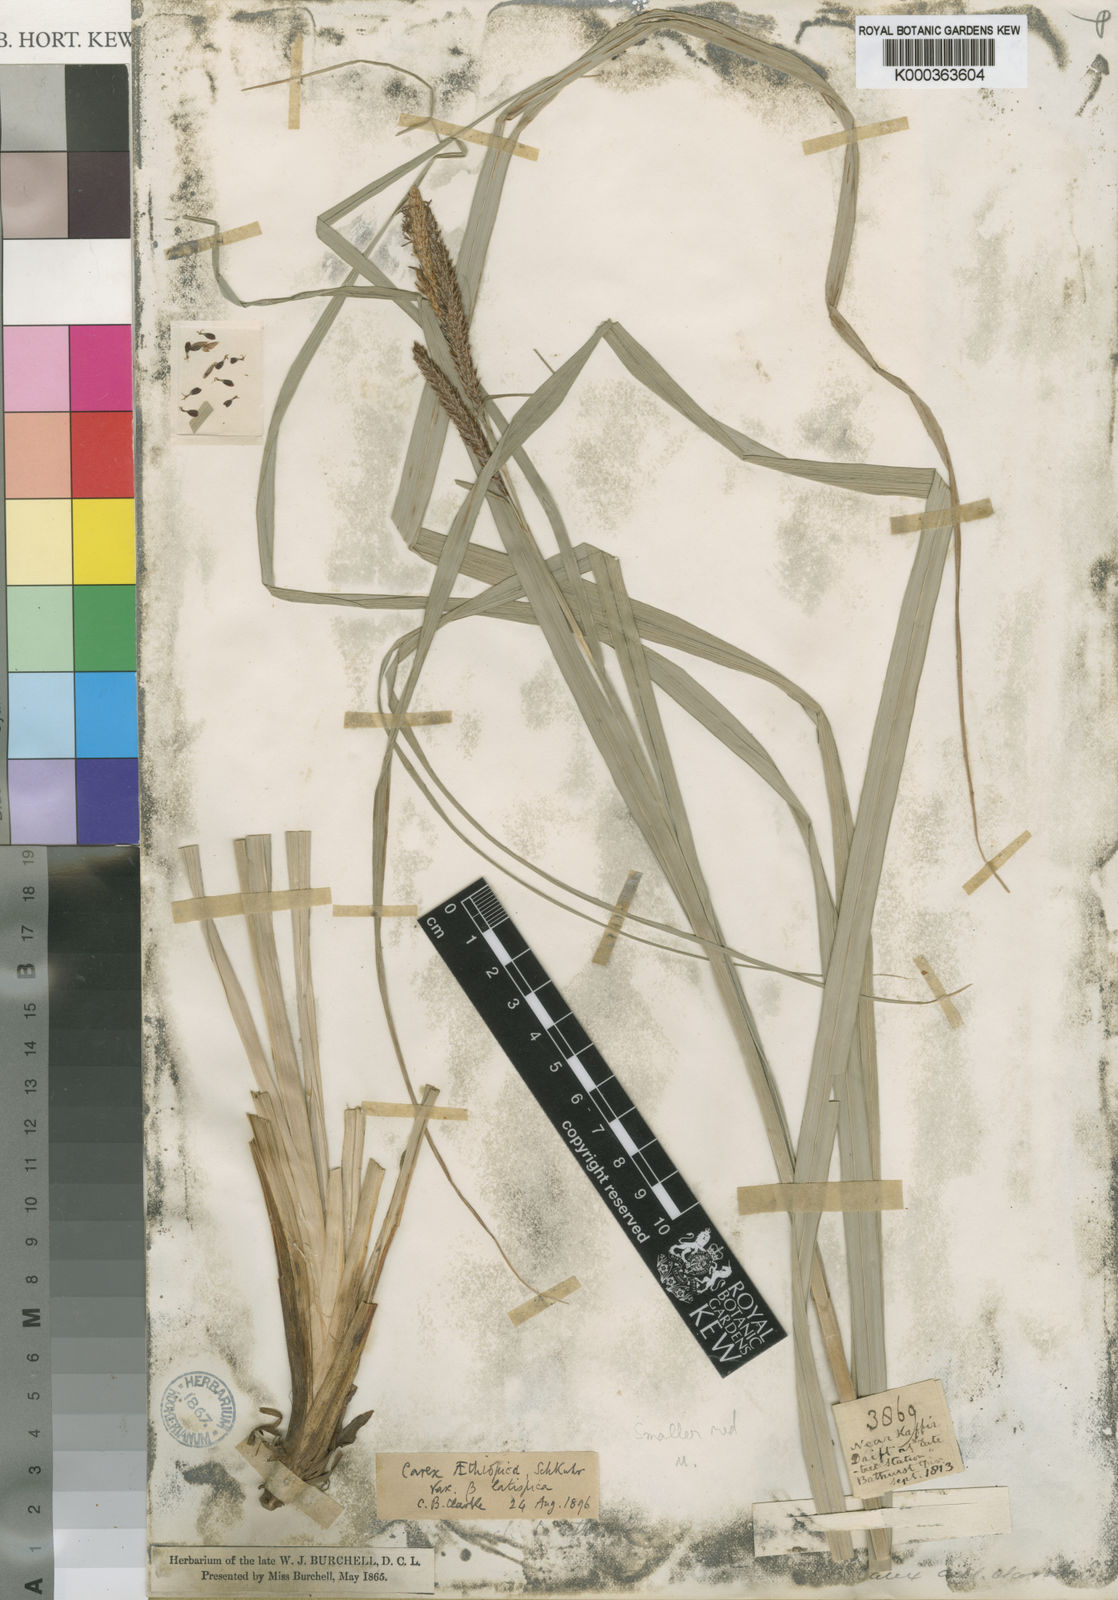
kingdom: Plantae
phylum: Tracheophyta
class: Liliopsida
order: Poales
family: Cyperaceae
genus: Carex
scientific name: Carex aethiopica
